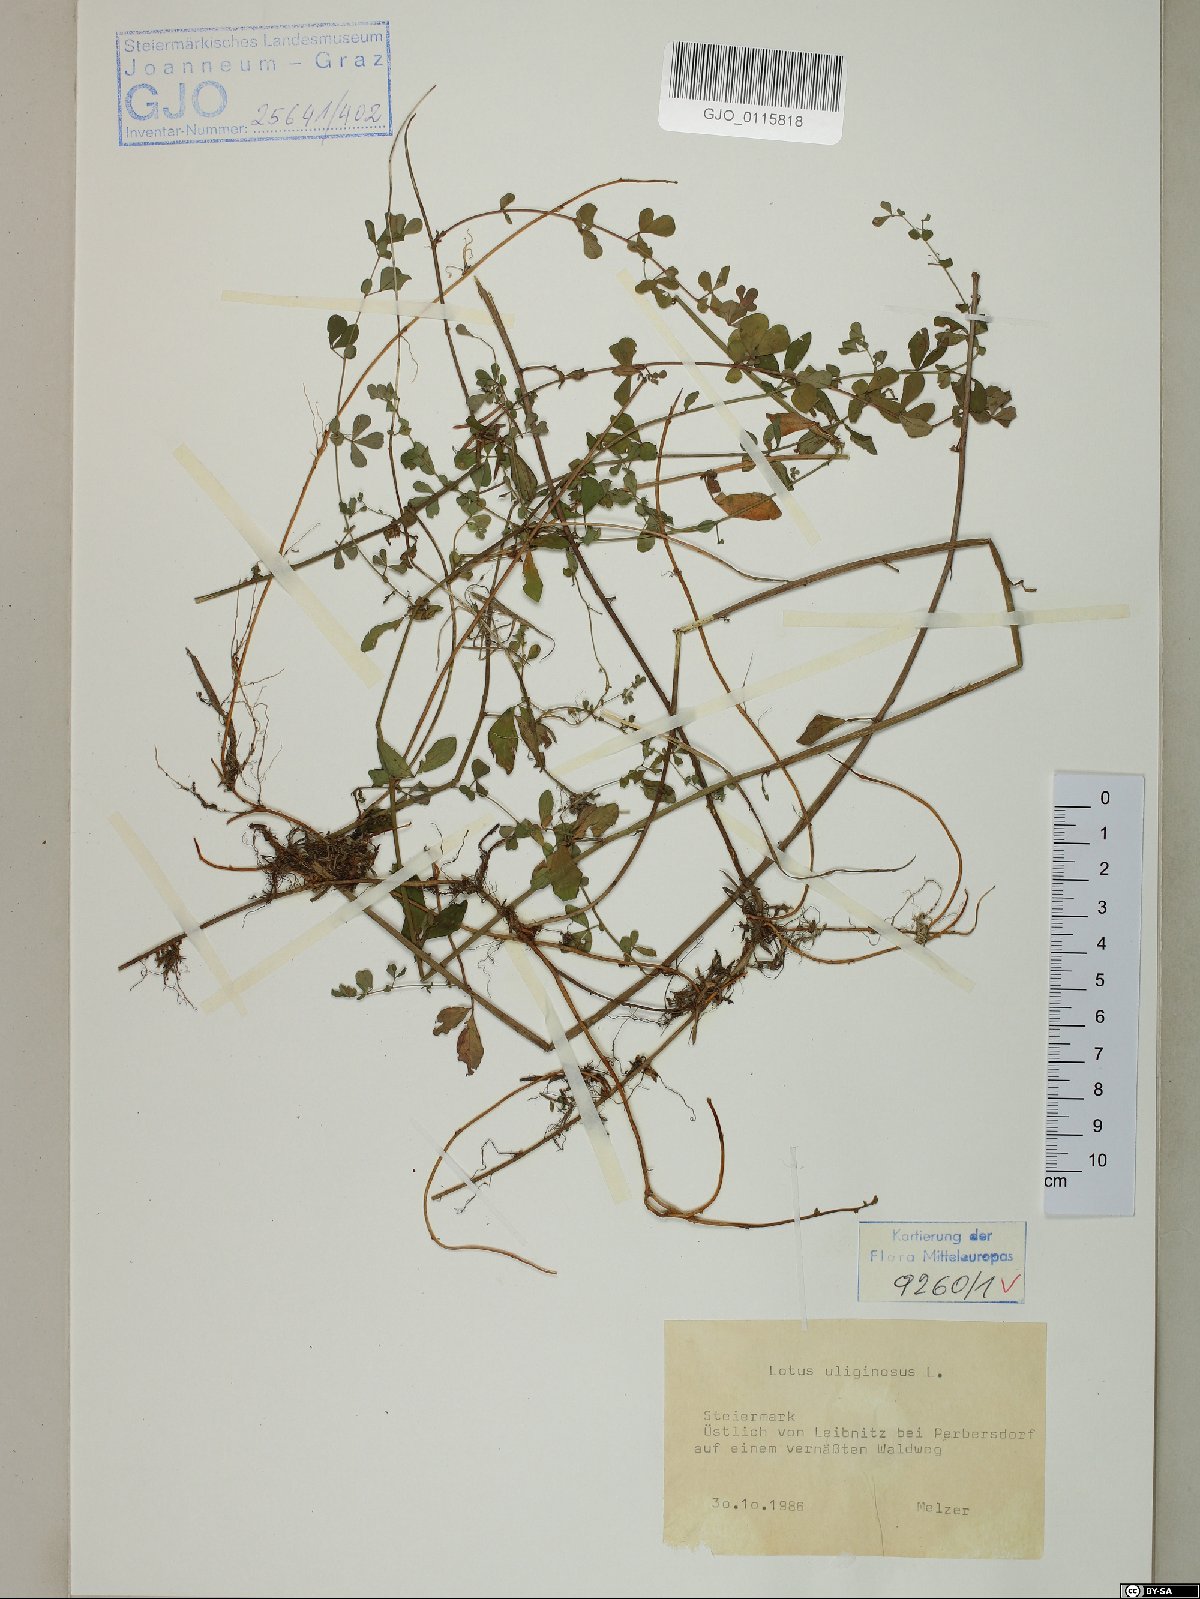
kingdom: Plantae
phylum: Tracheophyta
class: Magnoliopsida
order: Fabales
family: Fabaceae
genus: Lotus
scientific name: Lotus pedunculatus
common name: Greater birdsfoot-trefoil
